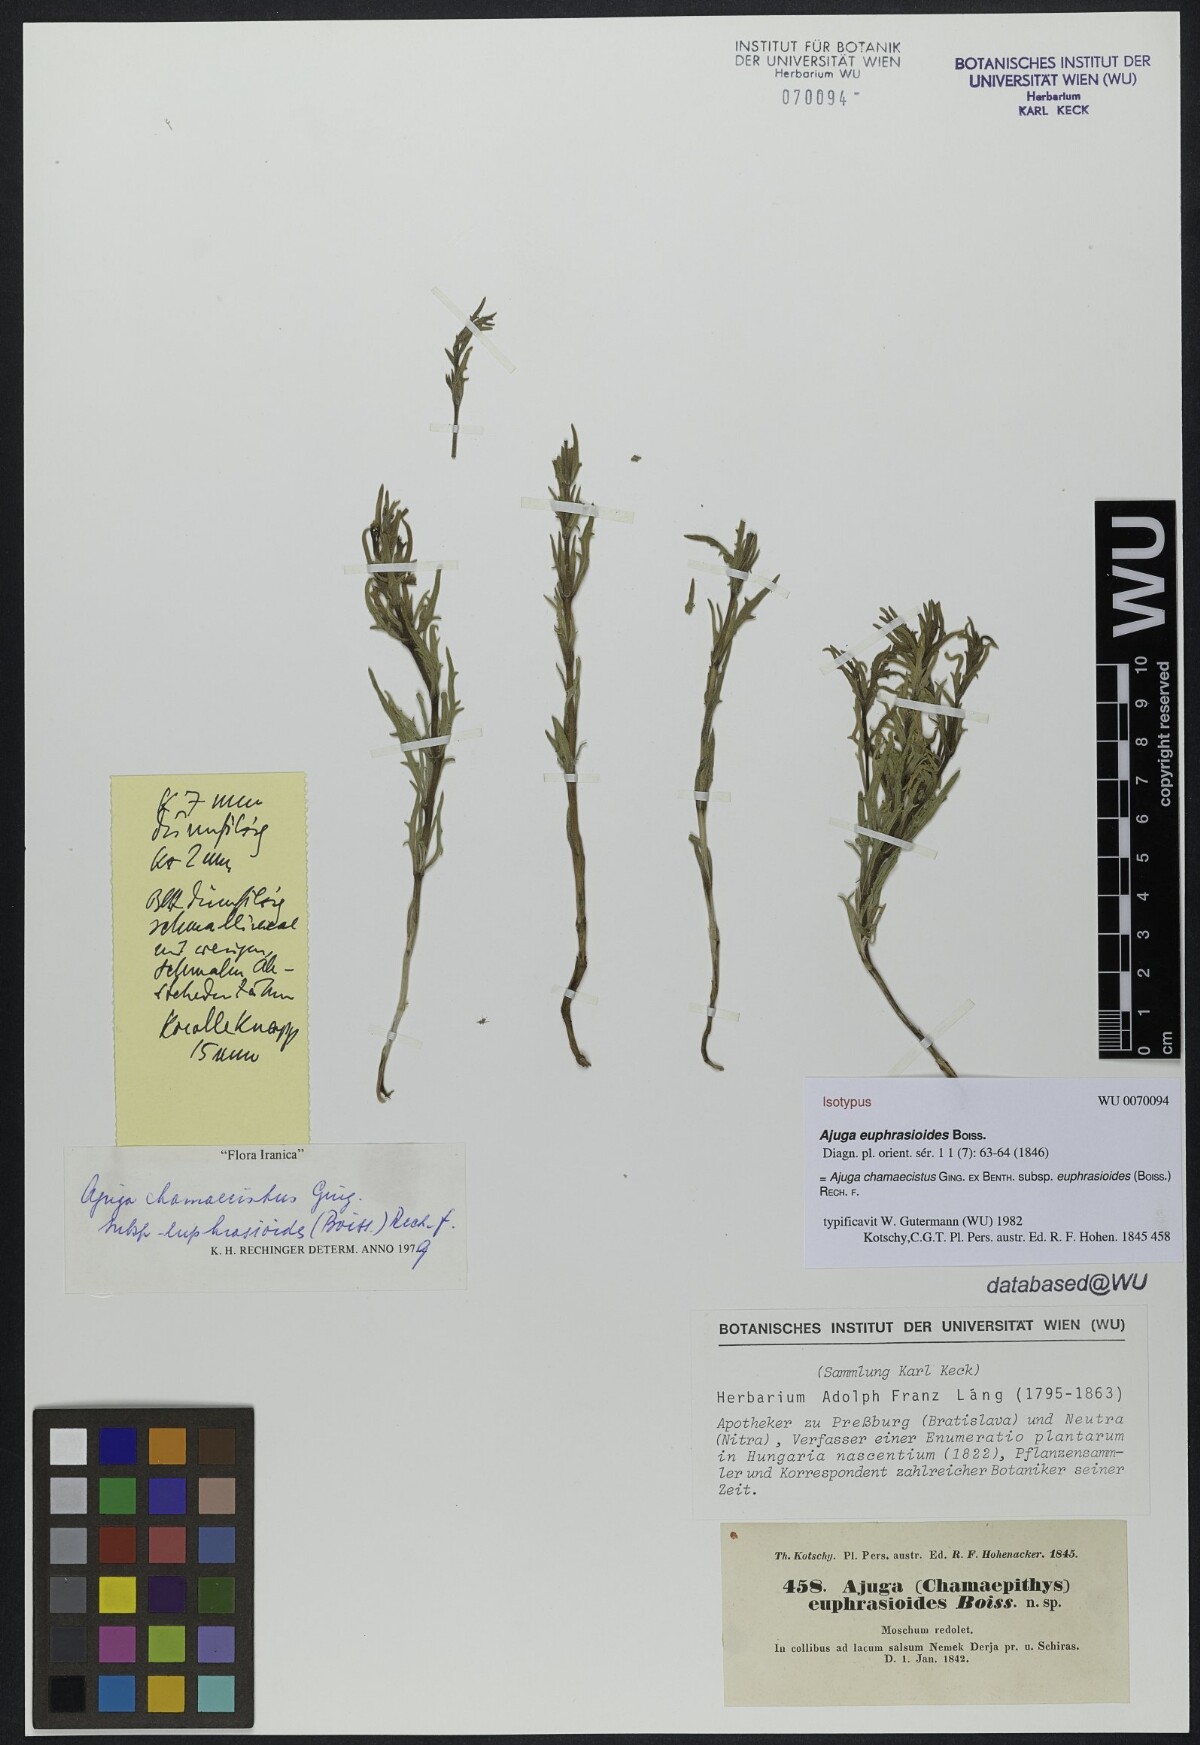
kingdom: Plantae
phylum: Tracheophyta
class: Magnoliopsida
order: Lamiales
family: Lamiaceae
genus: Ajuga
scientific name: Ajuga chamaecistus
